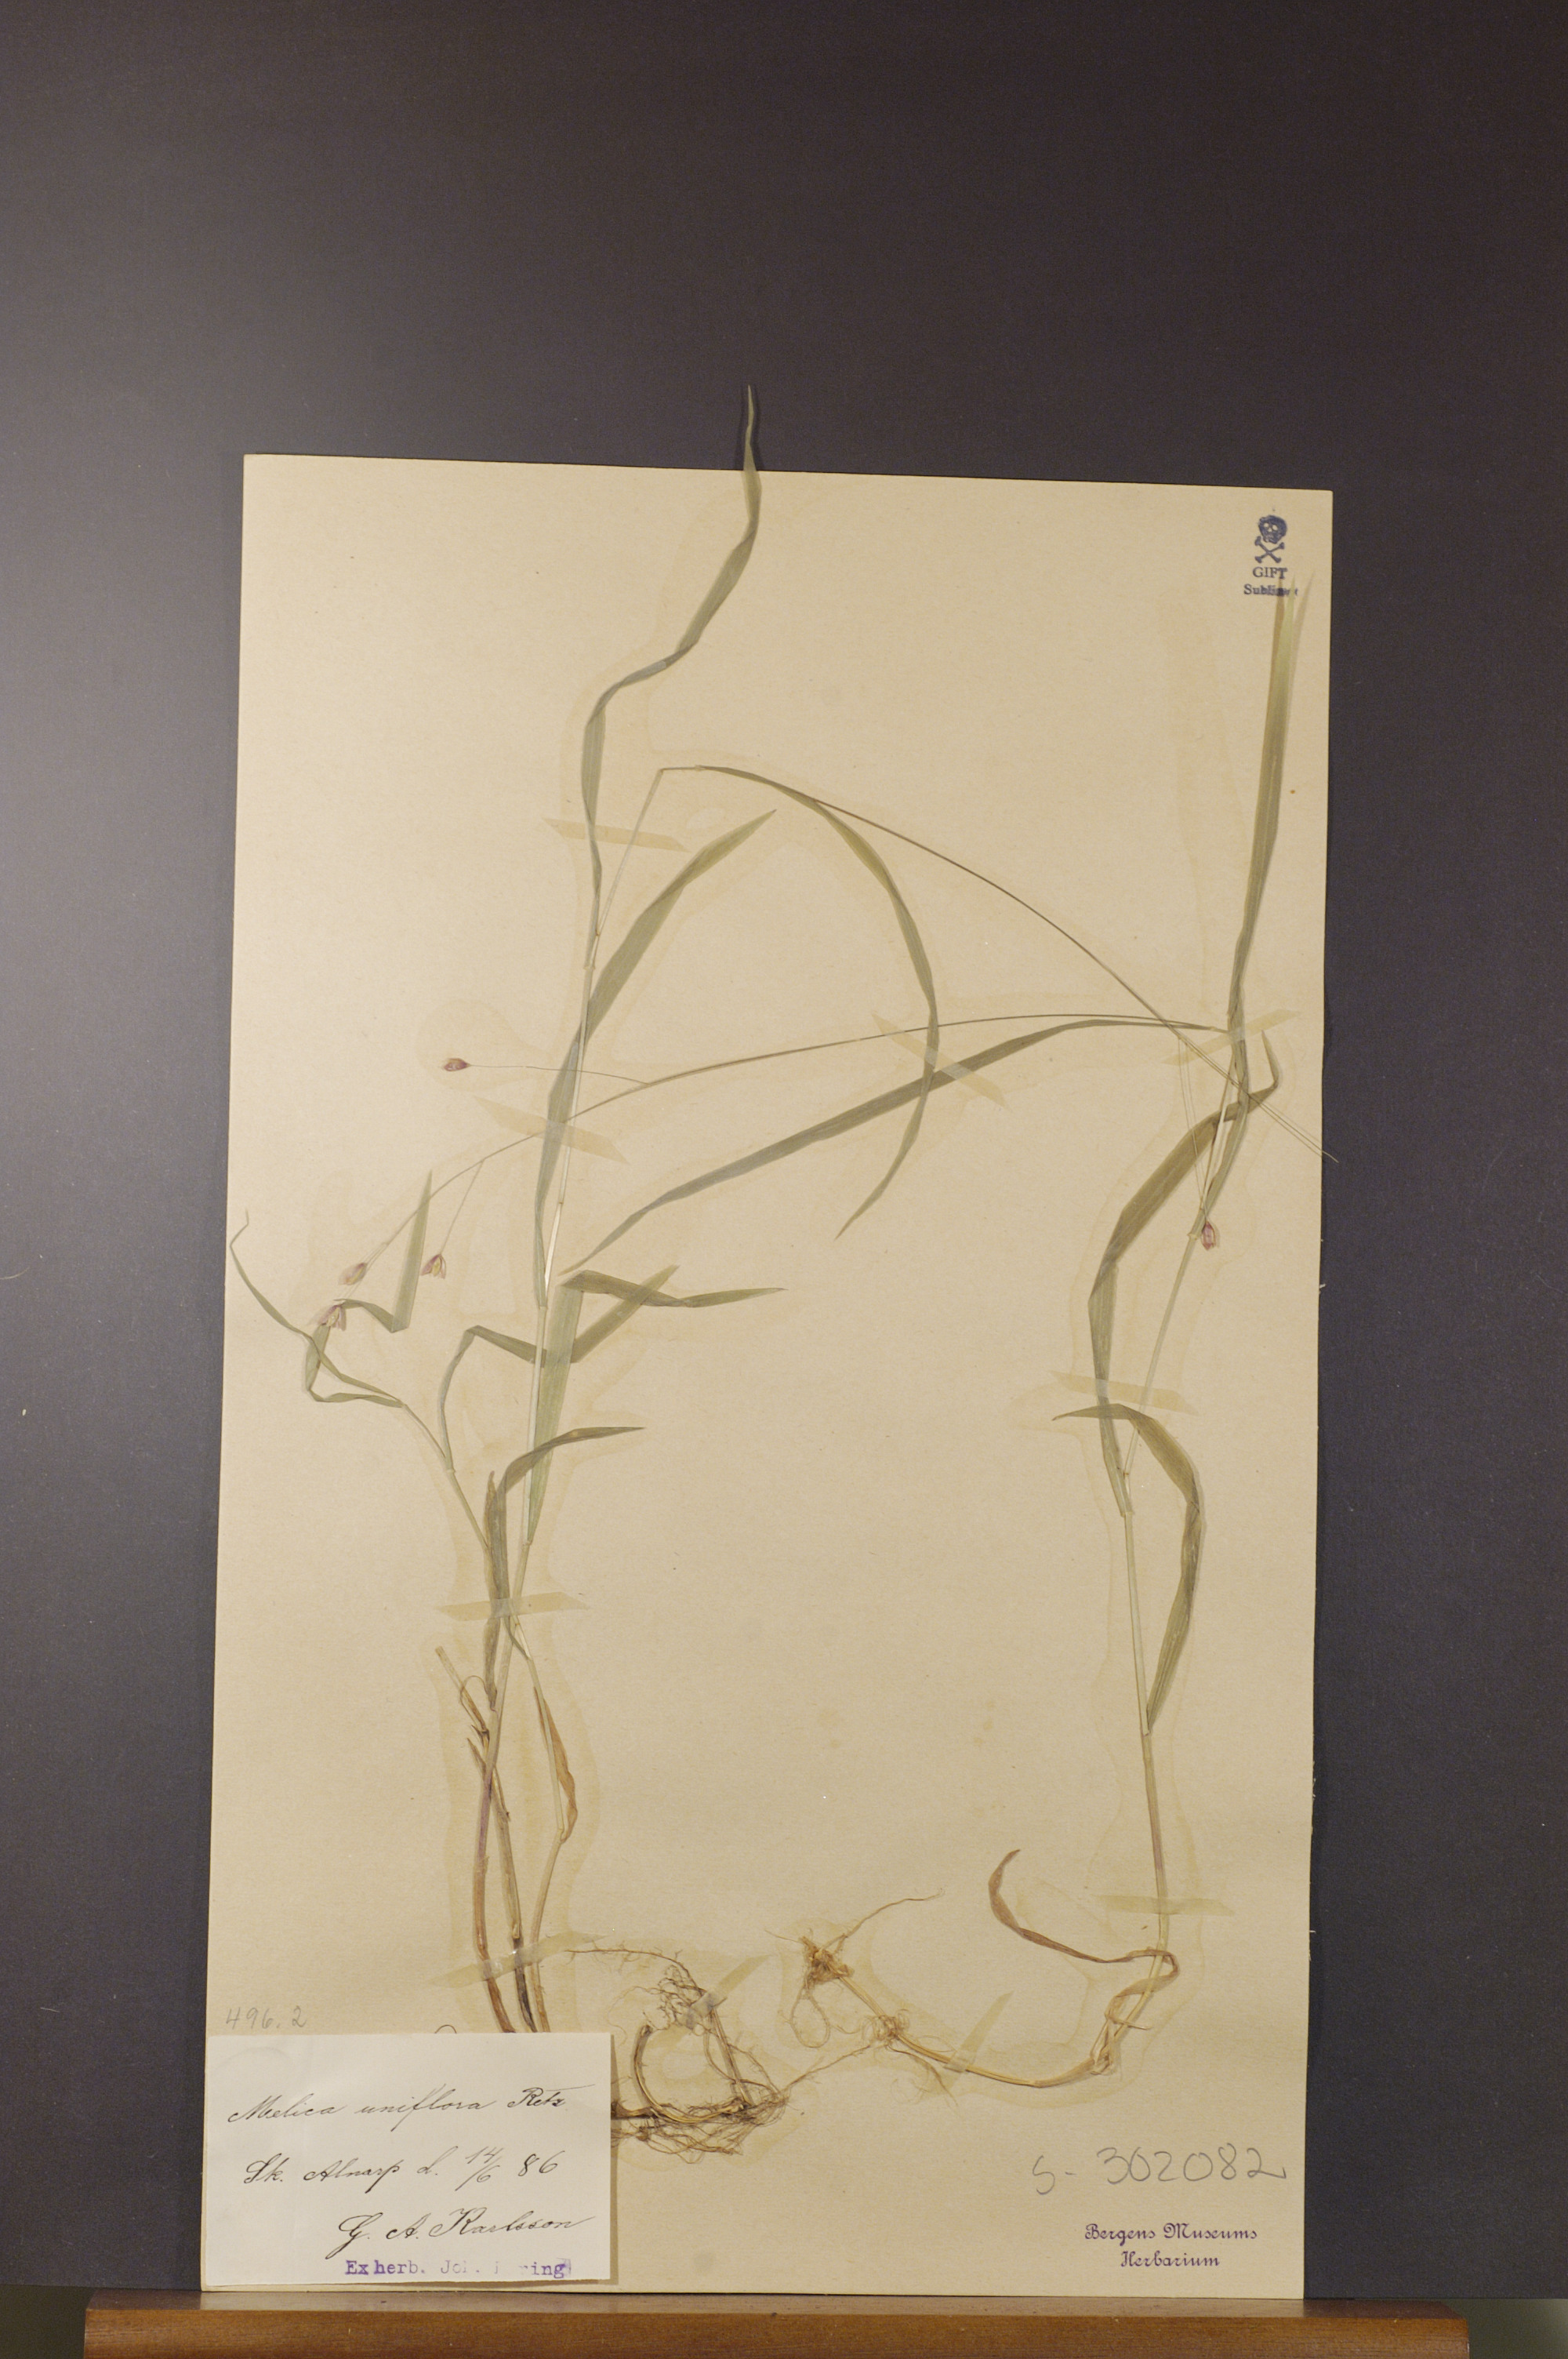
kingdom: Plantae
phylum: Tracheophyta
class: Liliopsida
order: Poales
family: Poaceae
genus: Melica
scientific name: Melica uniflora
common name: Wood melick
